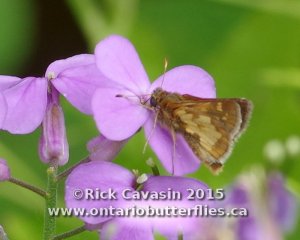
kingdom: Animalia
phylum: Arthropoda
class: Insecta
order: Lepidoptera
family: Hesperiidae
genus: Polites
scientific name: Polites coras
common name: Peck's Skipper
